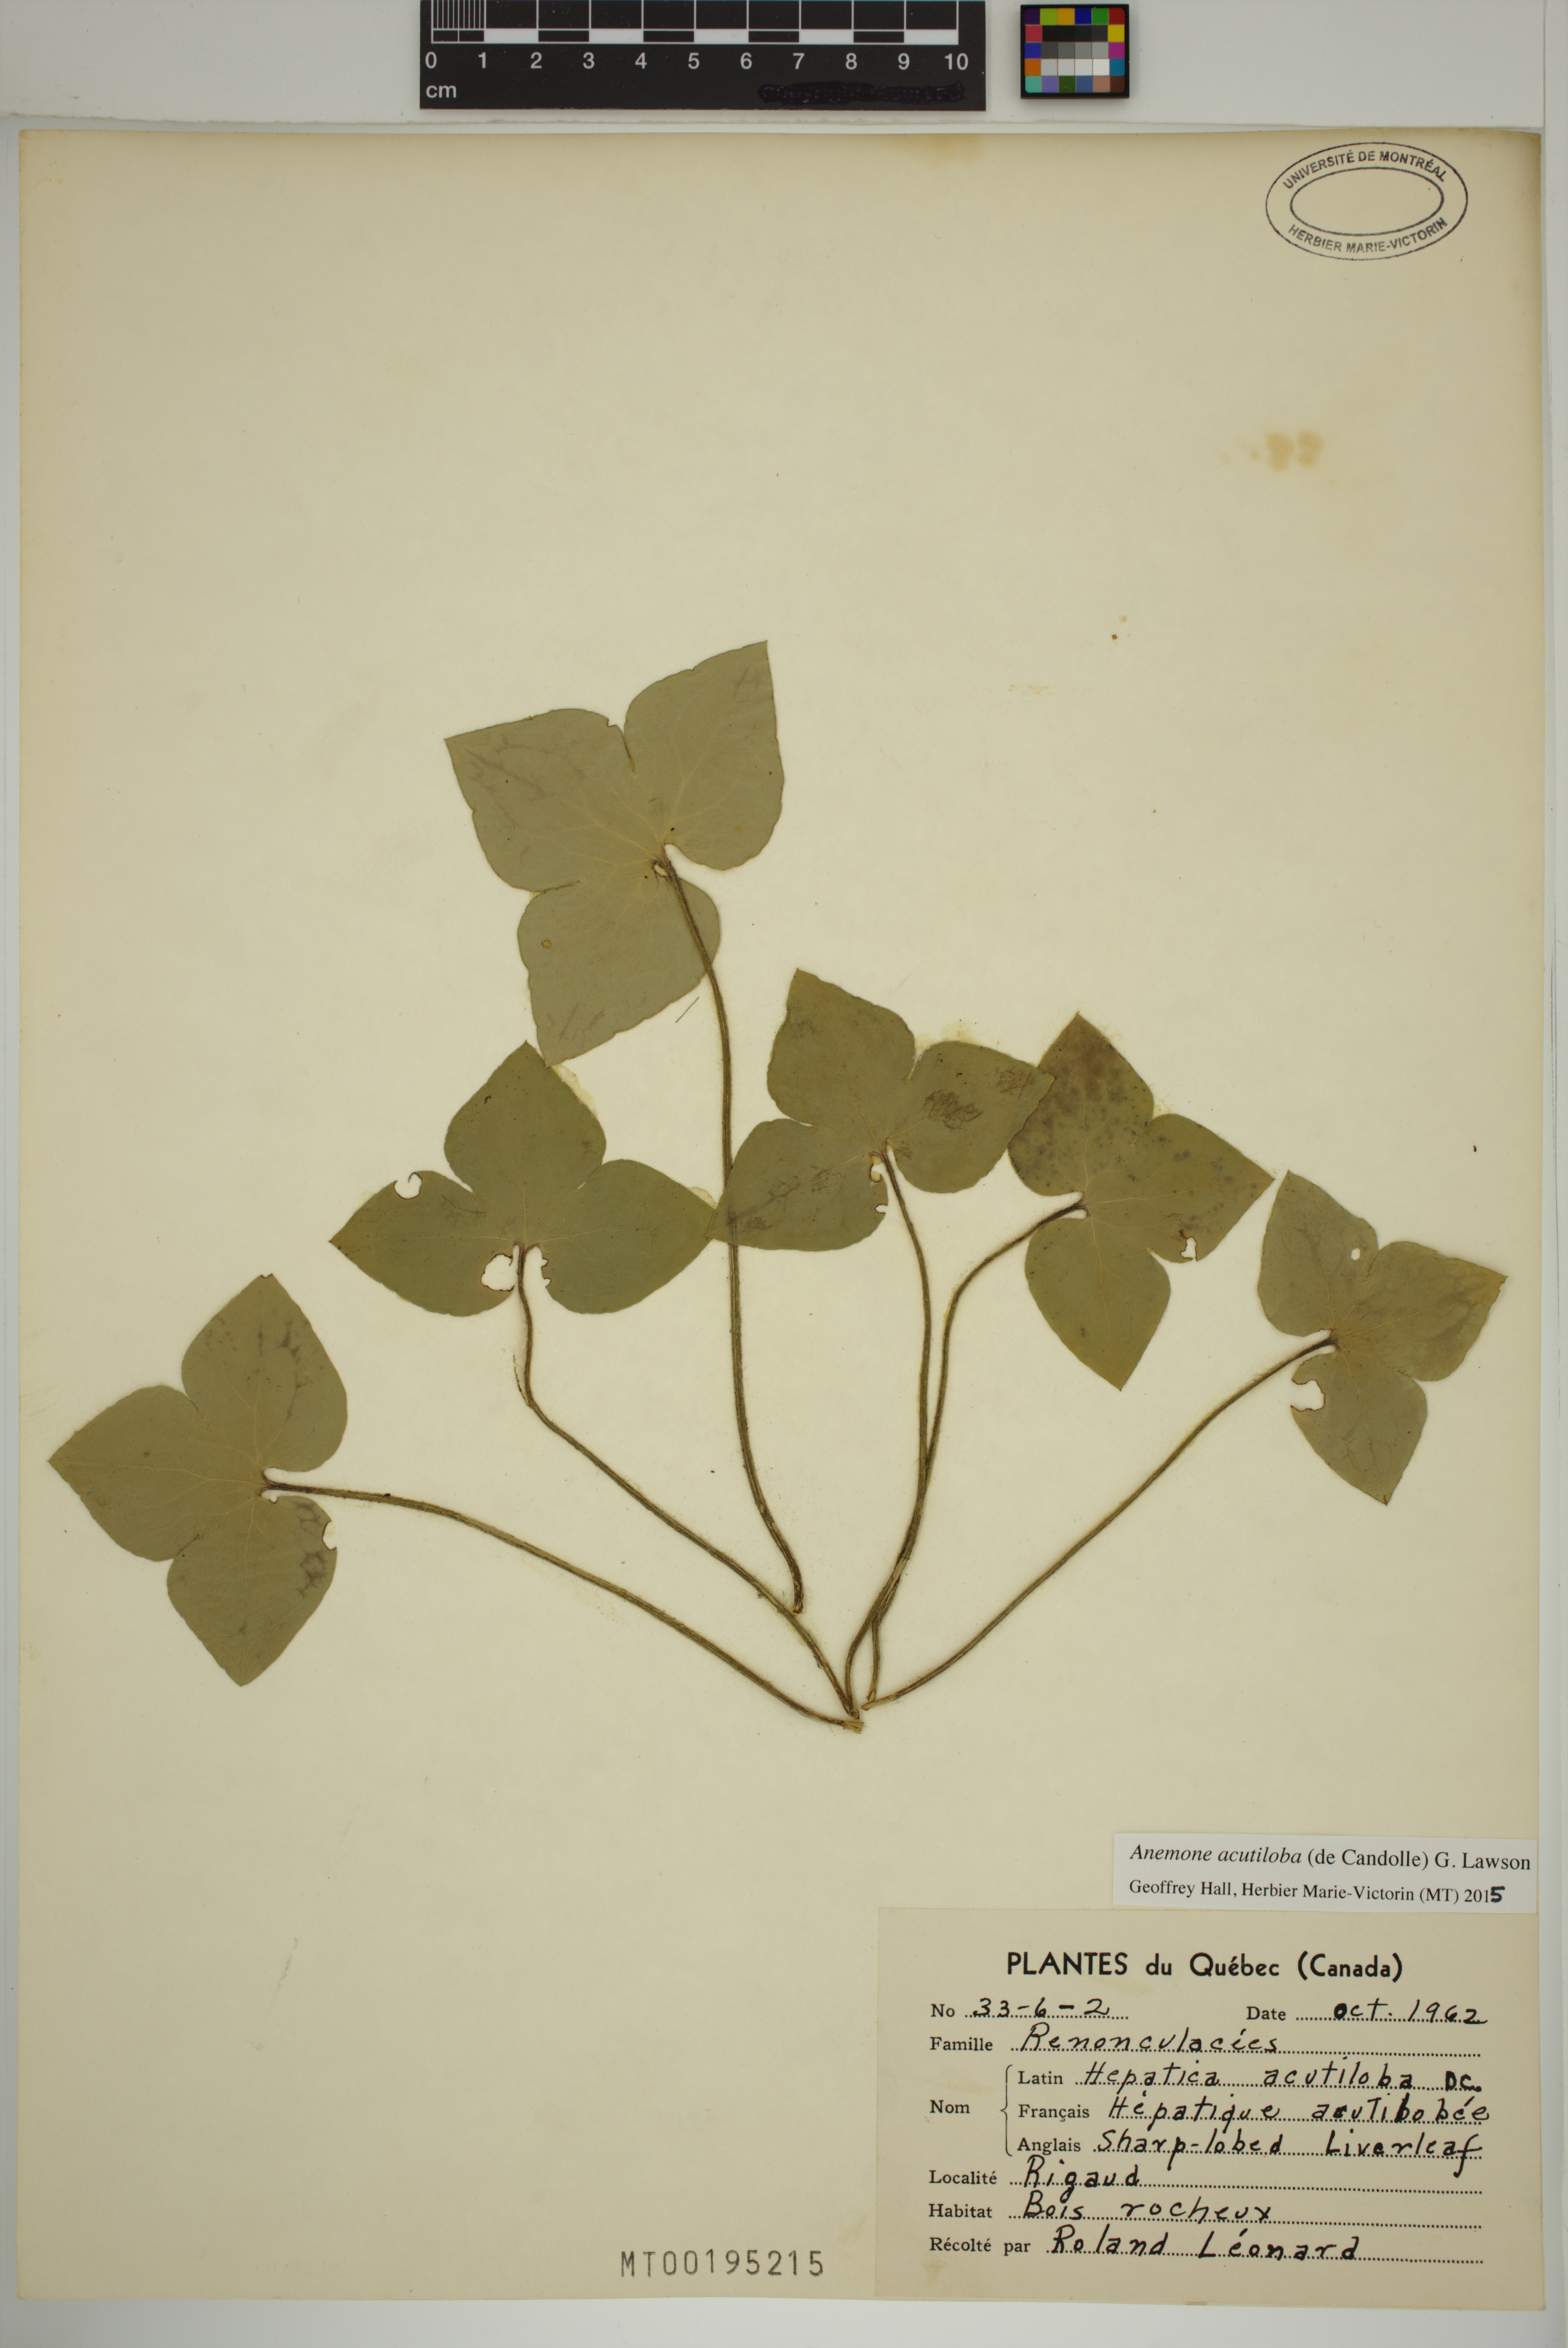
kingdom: Plantae
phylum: Tracheophyta
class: Magnoliopsida
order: Ranunculales
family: Ranunculaceae
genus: Hepatica
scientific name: Hepatica acutiloba
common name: Sharp-lobed hepatica
